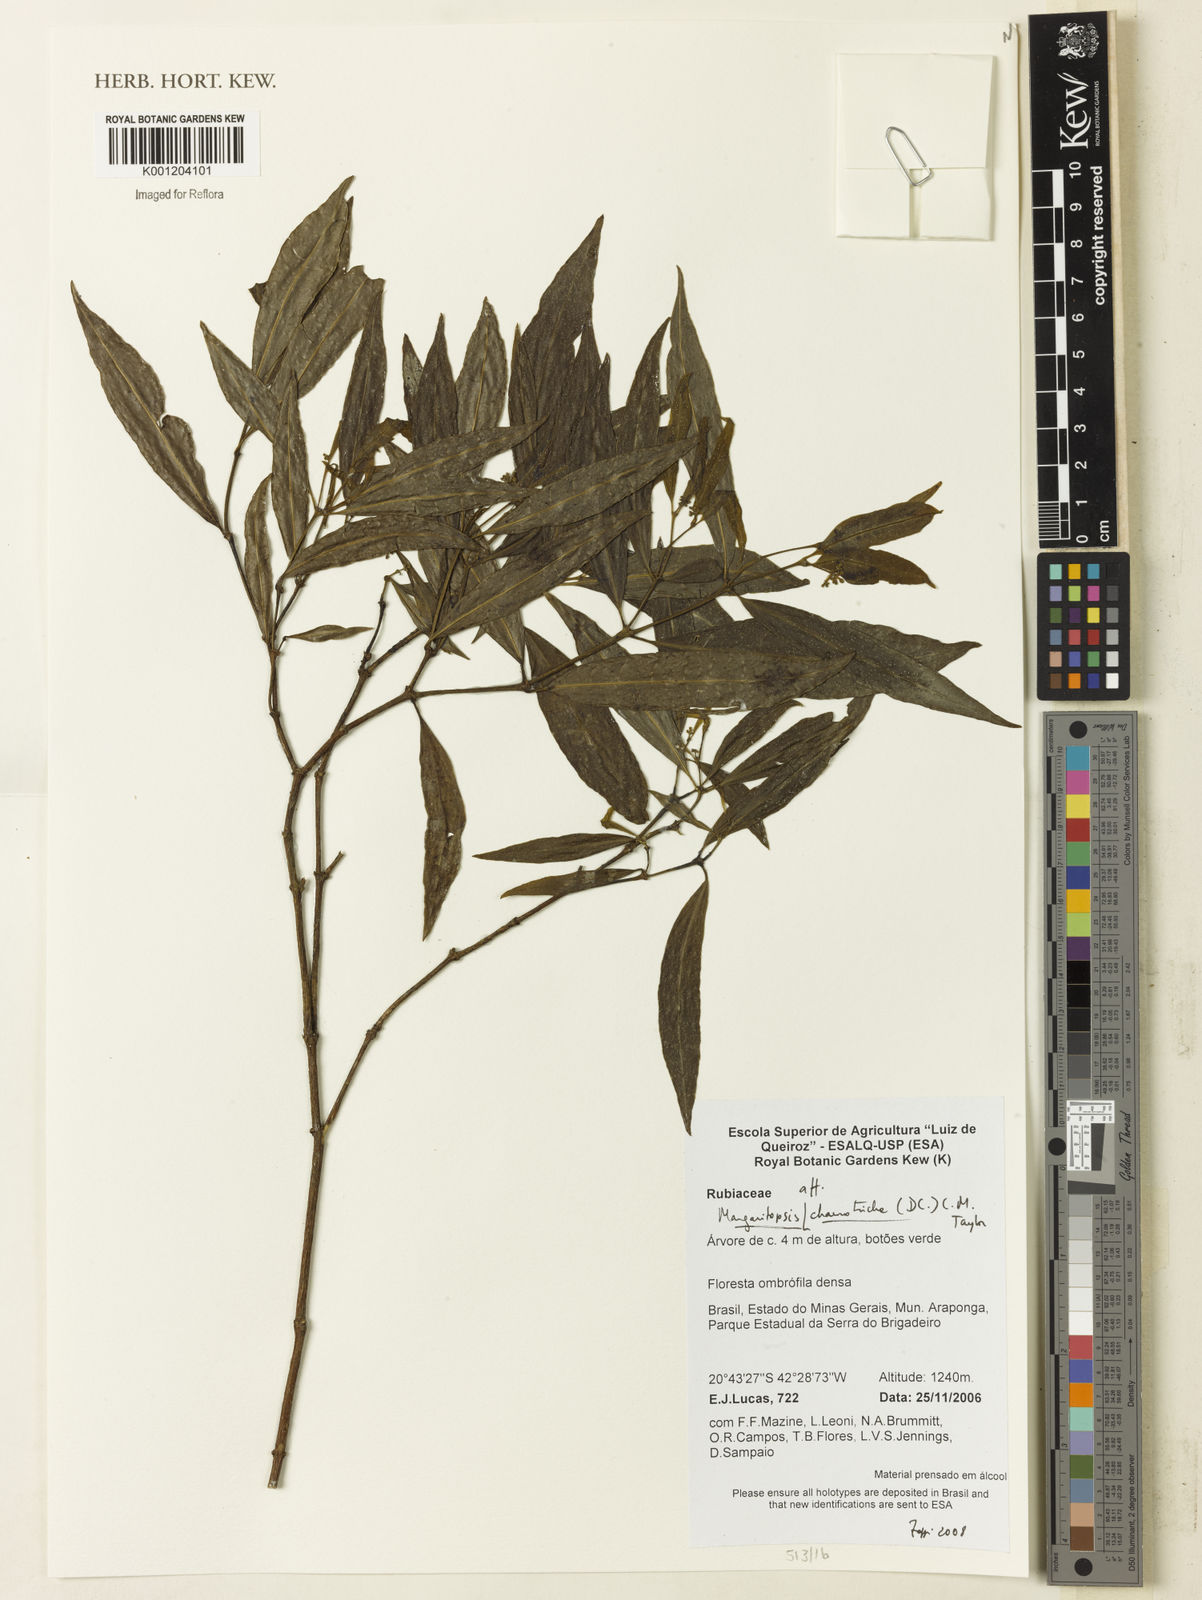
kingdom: Plantae
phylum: Tracheophyta
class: Magnoliopsida
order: Gentianales
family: Rubiaceae
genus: Eumachia
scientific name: Eumachia chaenotricha
